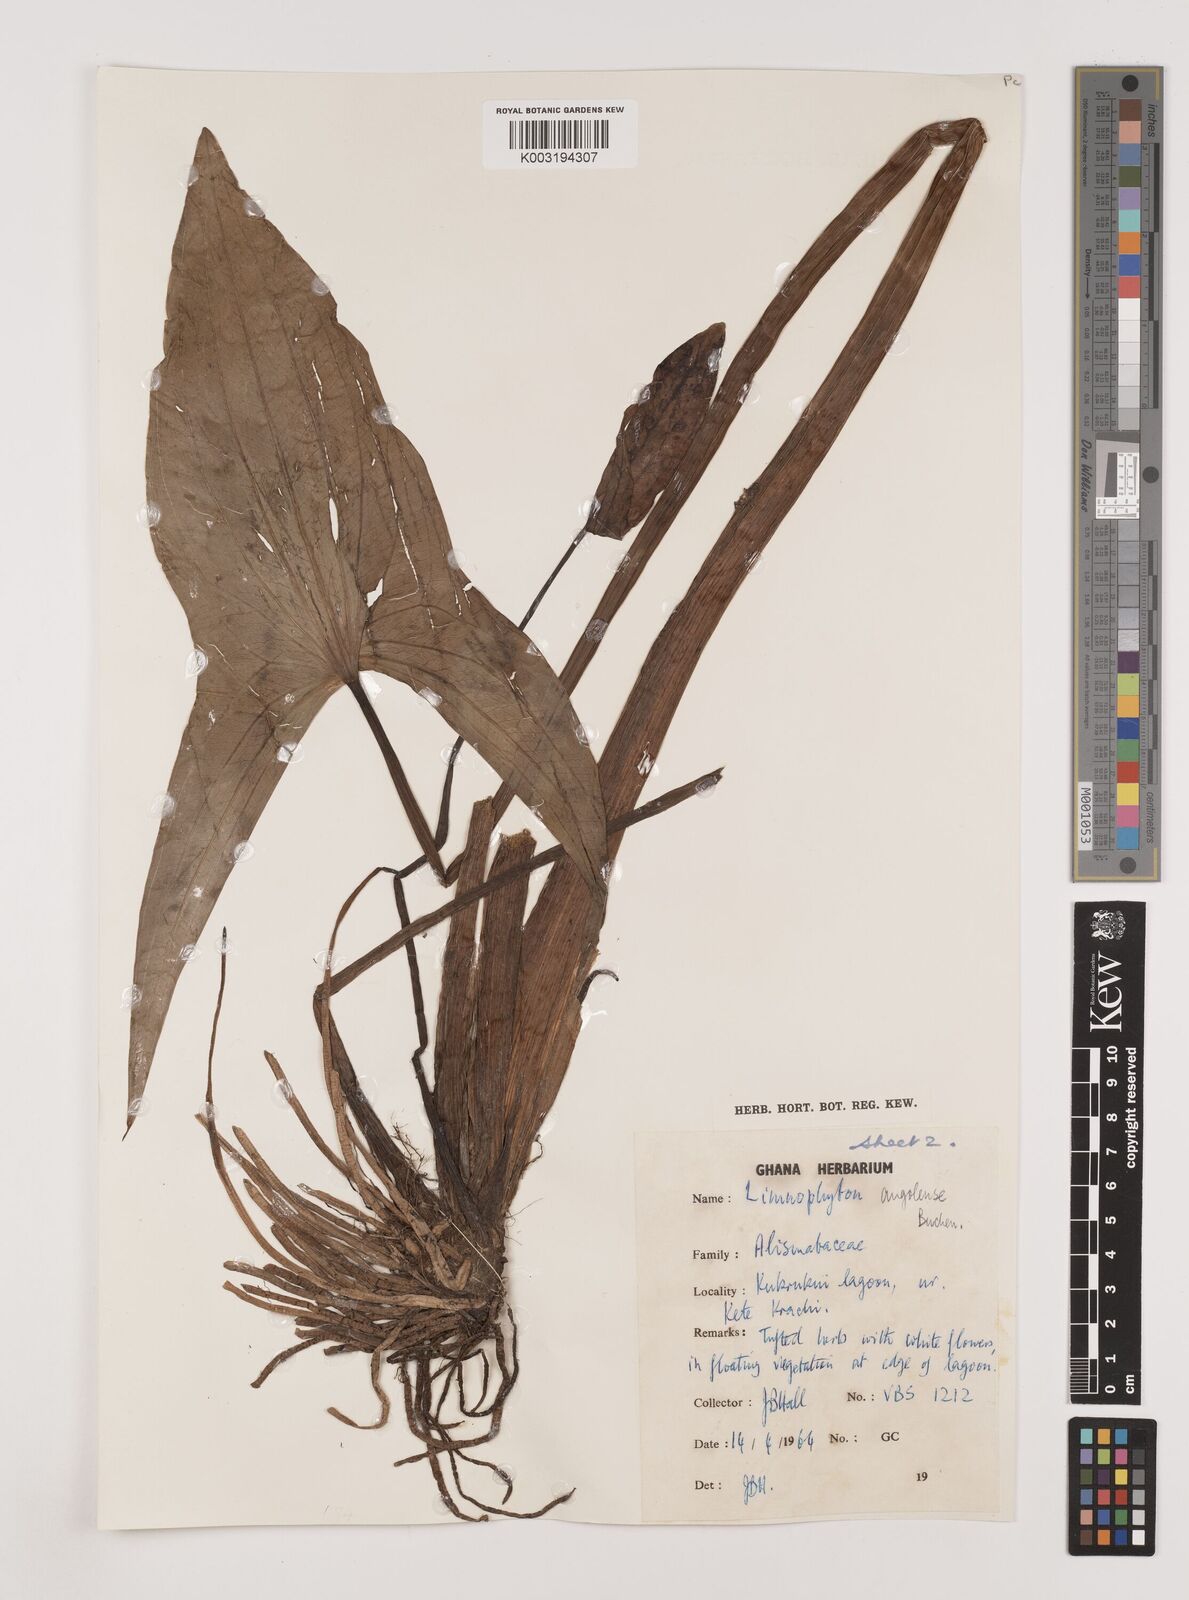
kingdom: Plantae
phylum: Tracheophyta
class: Liliopsida
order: Alismatales
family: Alismataceae
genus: Limnophyton
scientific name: Limnophyton angolense
